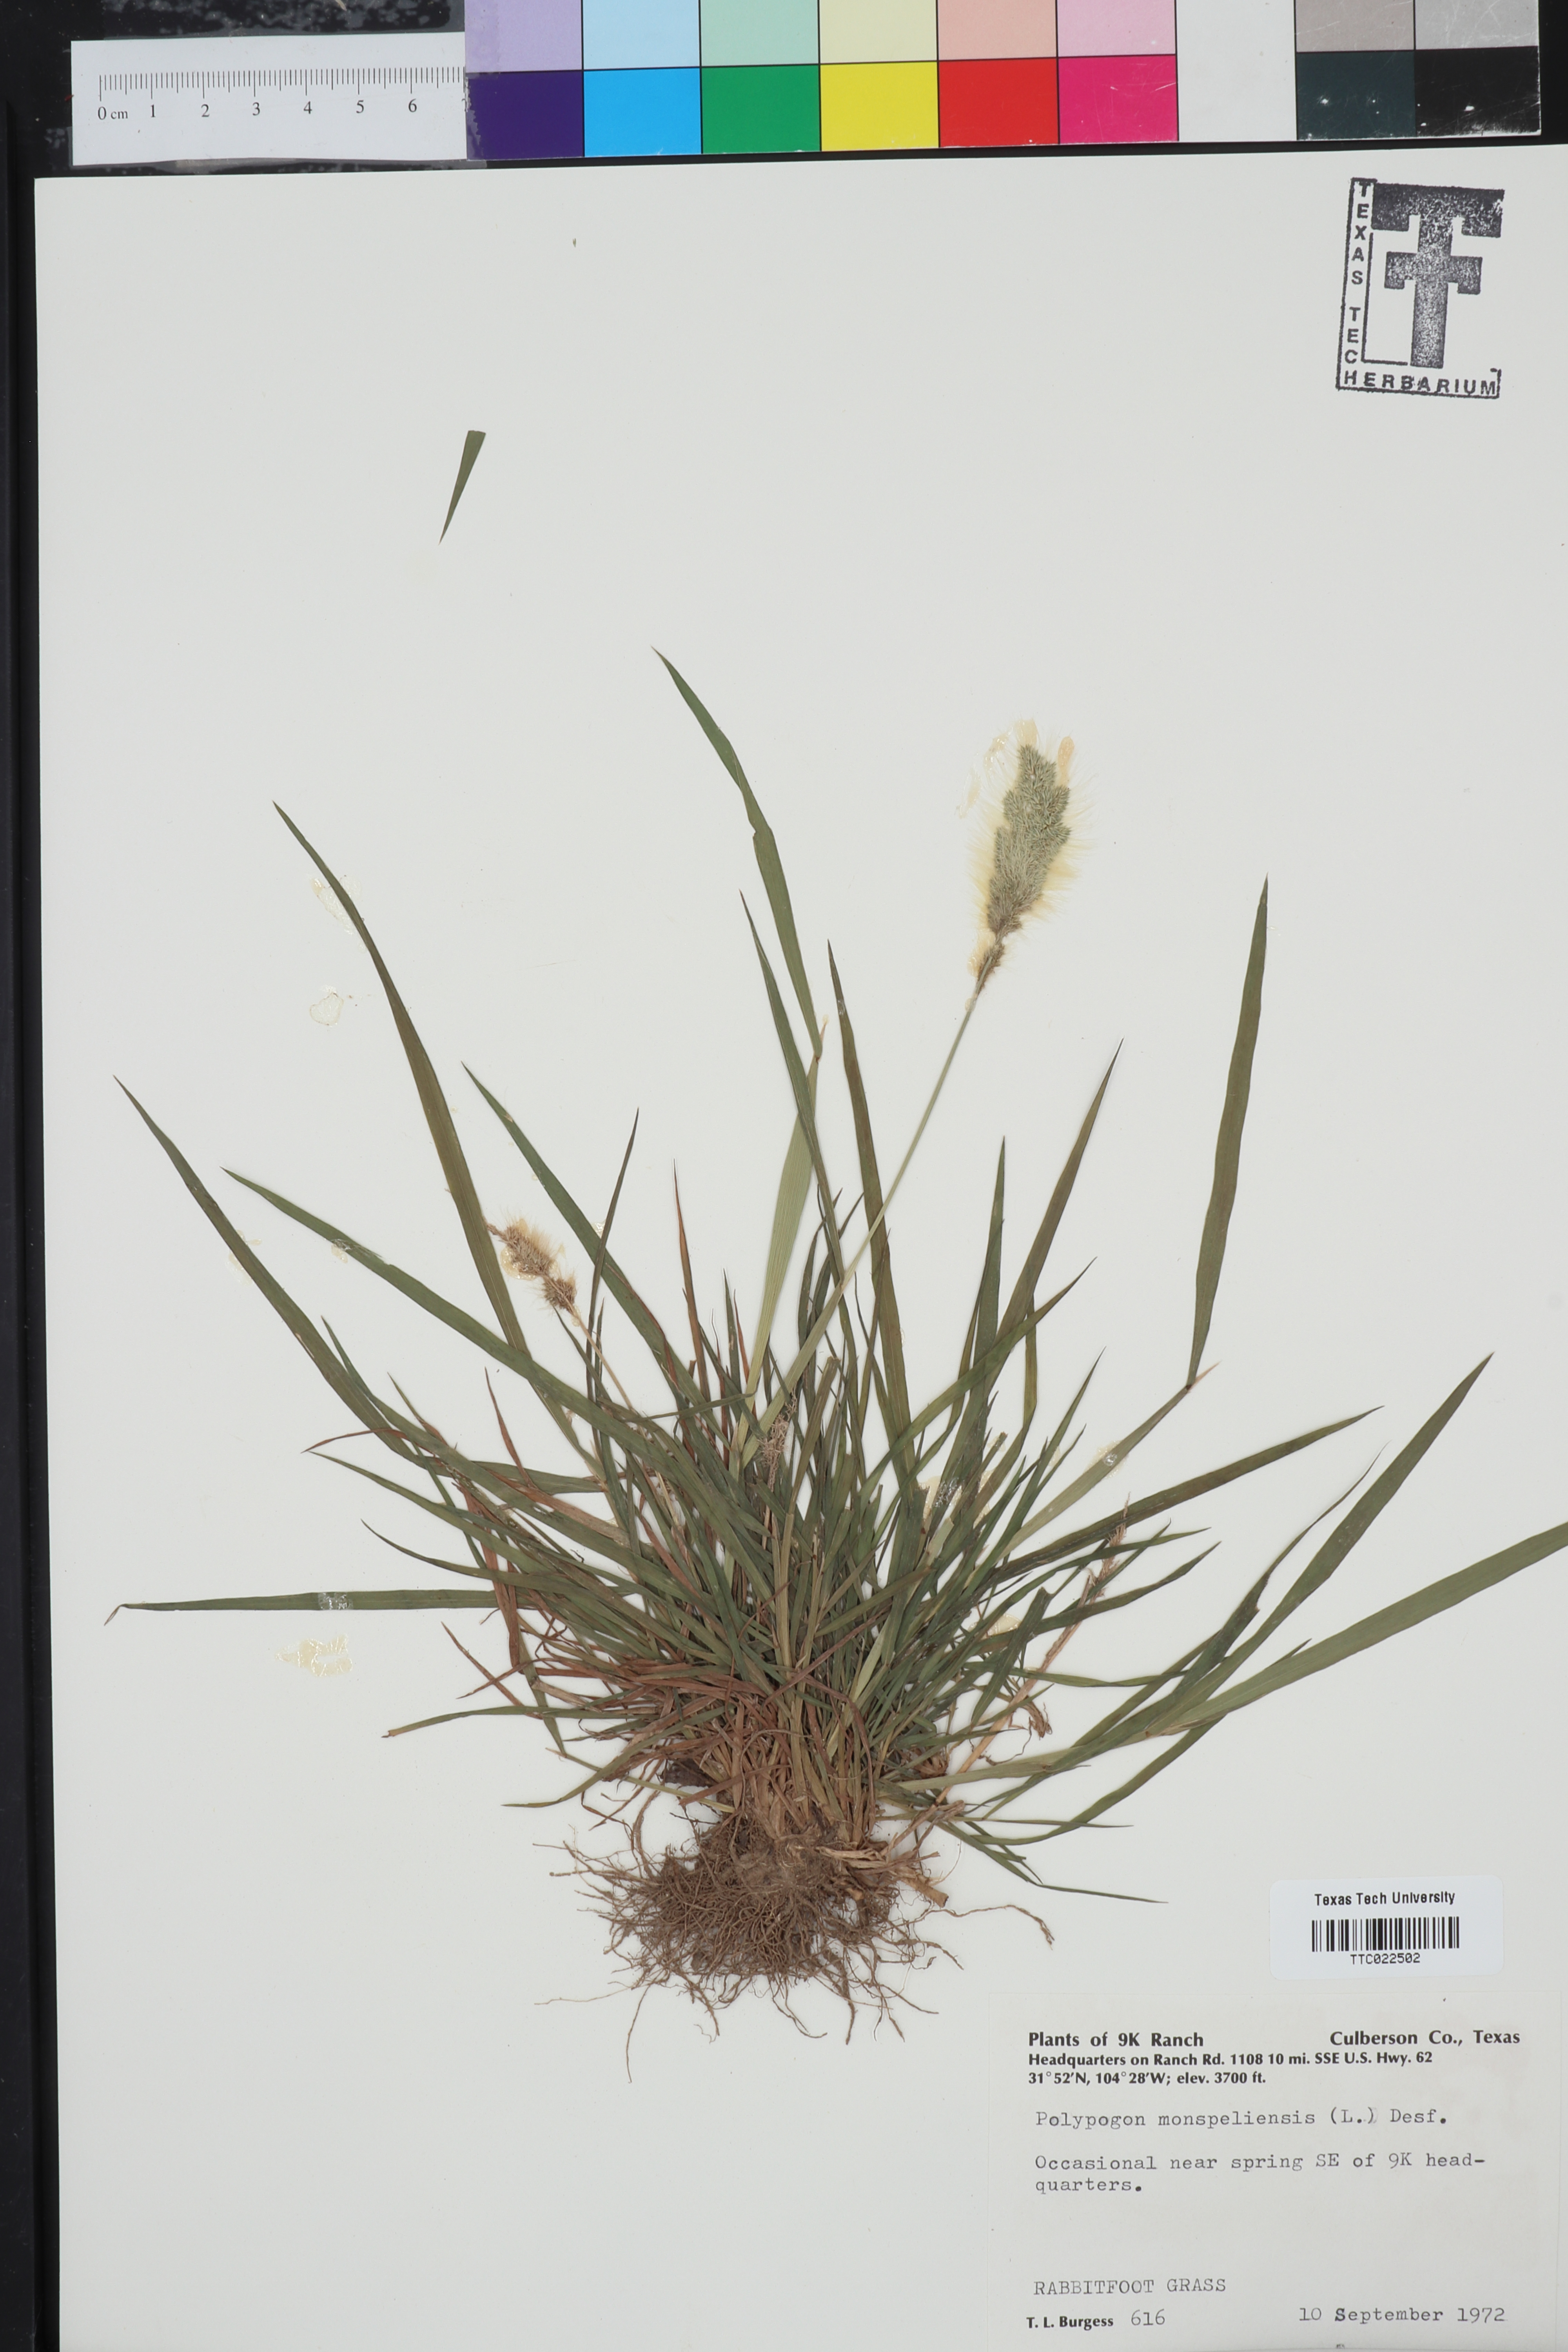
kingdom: Plantae
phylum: Tracheophyta
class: Liliopsida
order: Poales
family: Poaceae
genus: Polypogon
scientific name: Polypogon monspeliensis
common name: Annual rabbitsfoot grass
